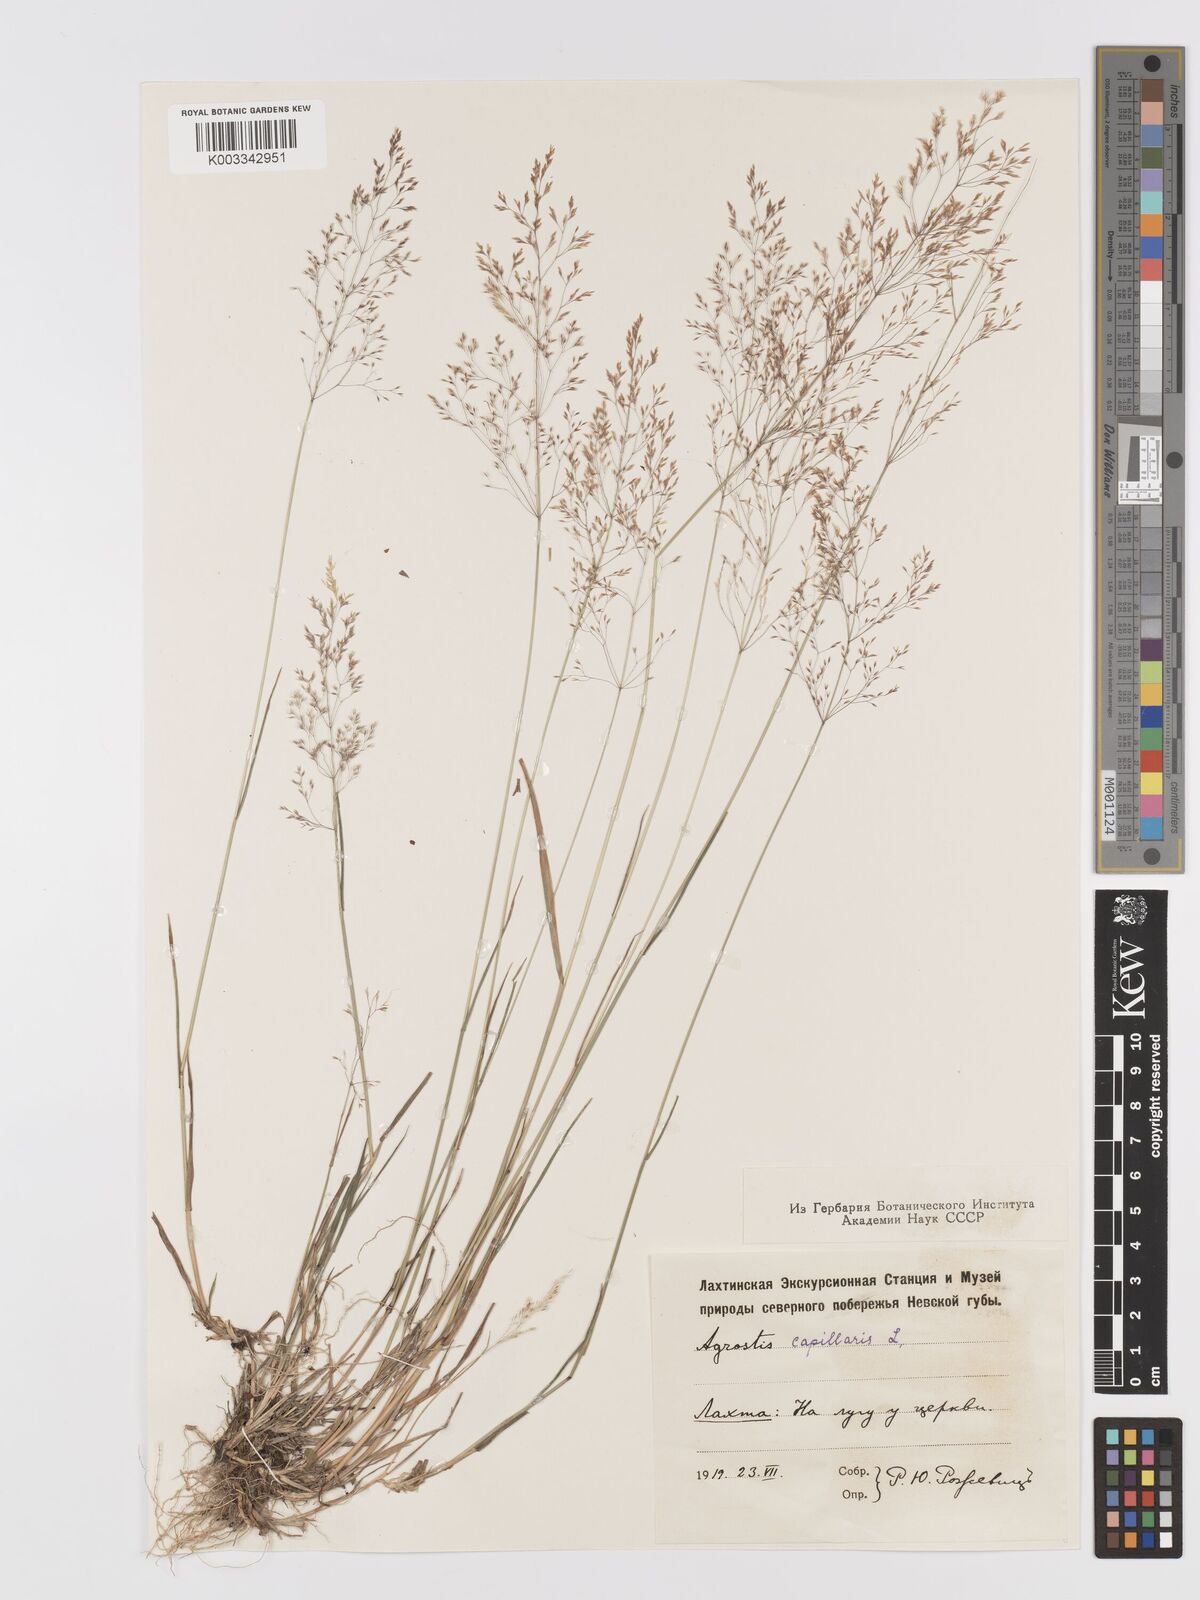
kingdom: Plantae
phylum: Tracheophyta
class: Liliopsida
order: Poales
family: Poaceae
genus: Agrostis
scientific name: Agrostis capillaris
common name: Colonial bentgrass
